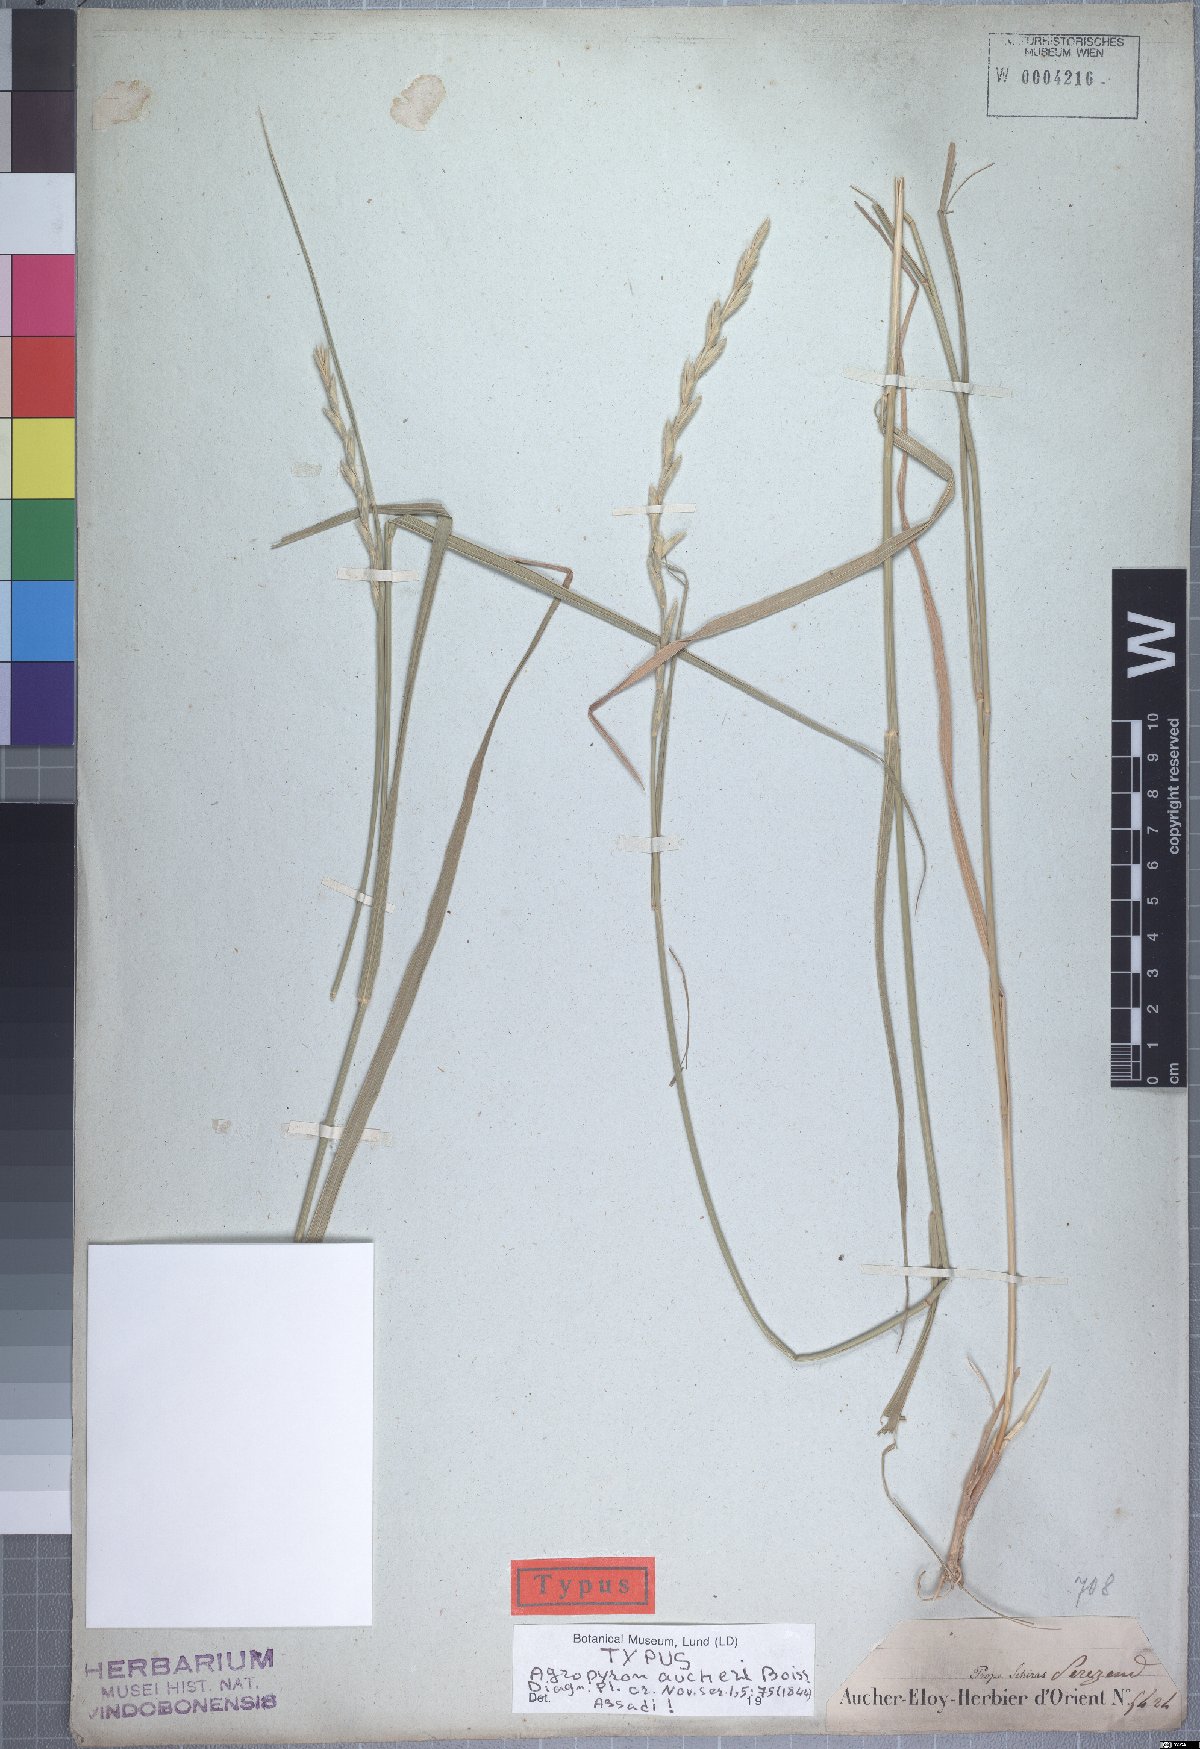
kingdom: Plantae
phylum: Tracheophyta
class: Liliopsida
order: Poales
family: Poaceae
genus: Thinopyrum
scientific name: Thinopyrum intermedium
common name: Intermediate wheatgrass
